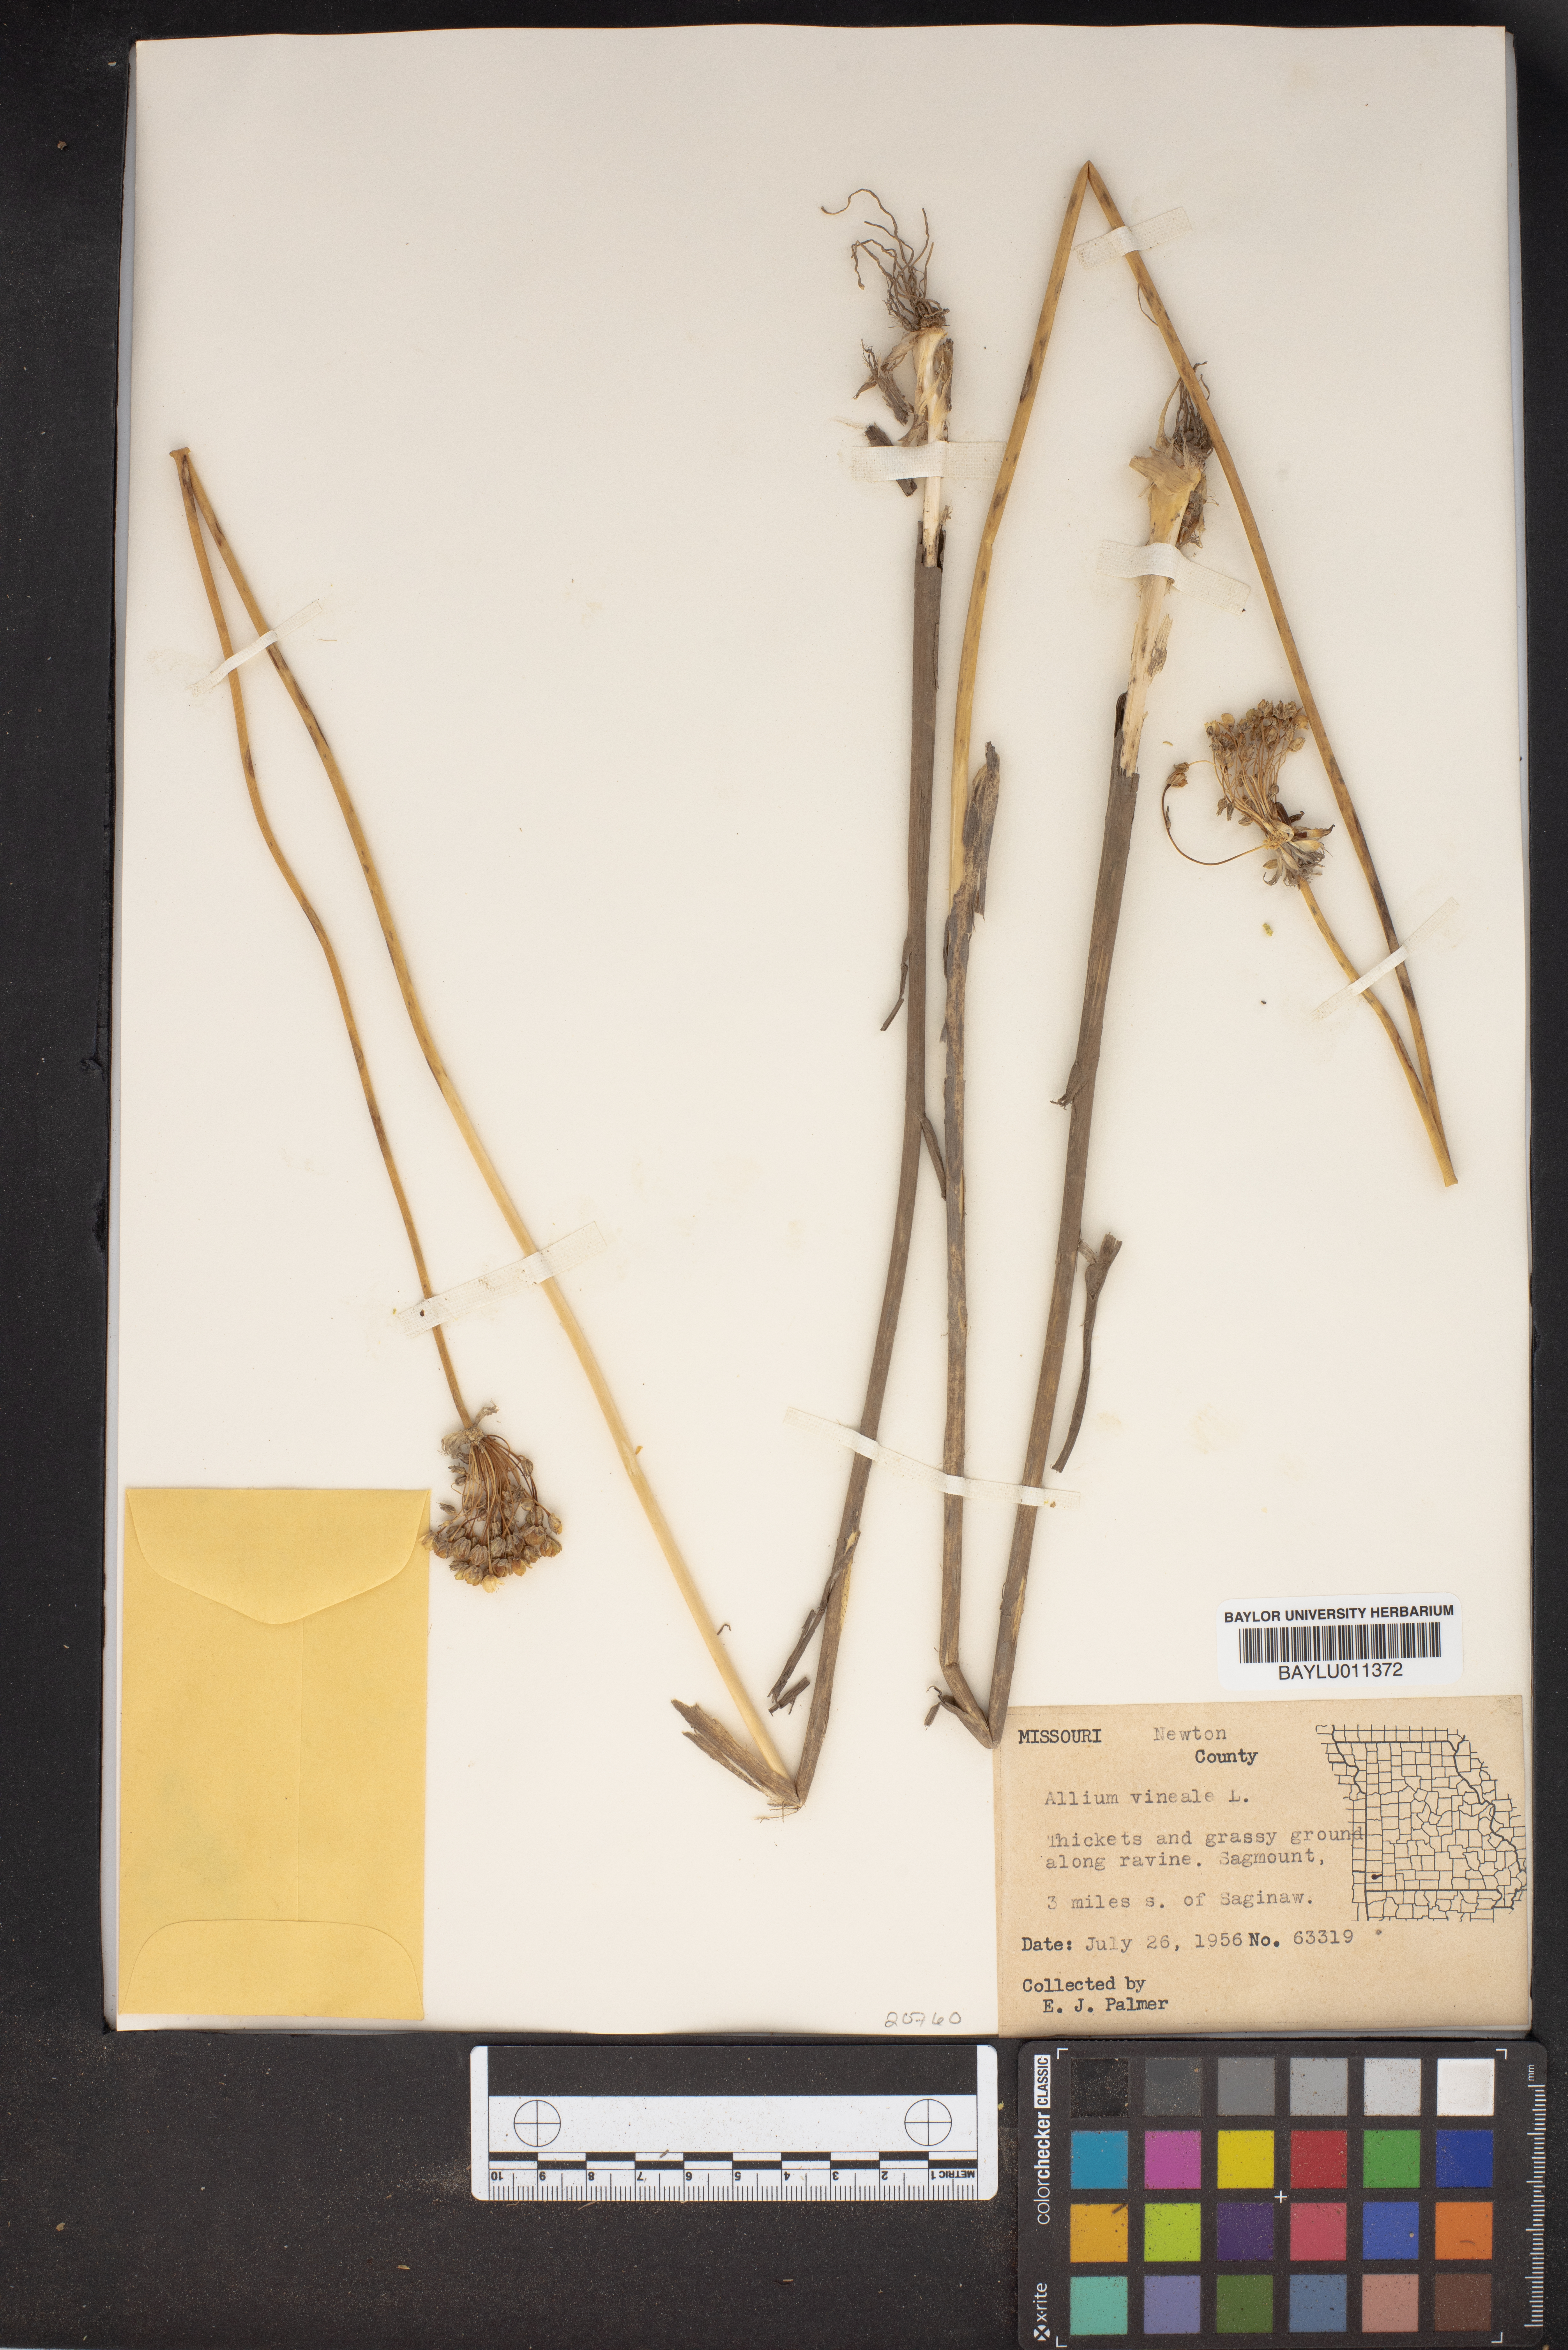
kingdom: Plantae
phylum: Tracheophyta
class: Liliopsida
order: Asparagales
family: Amaryllidaceae
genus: Allium
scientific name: Allium vineale
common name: Crow garlic
